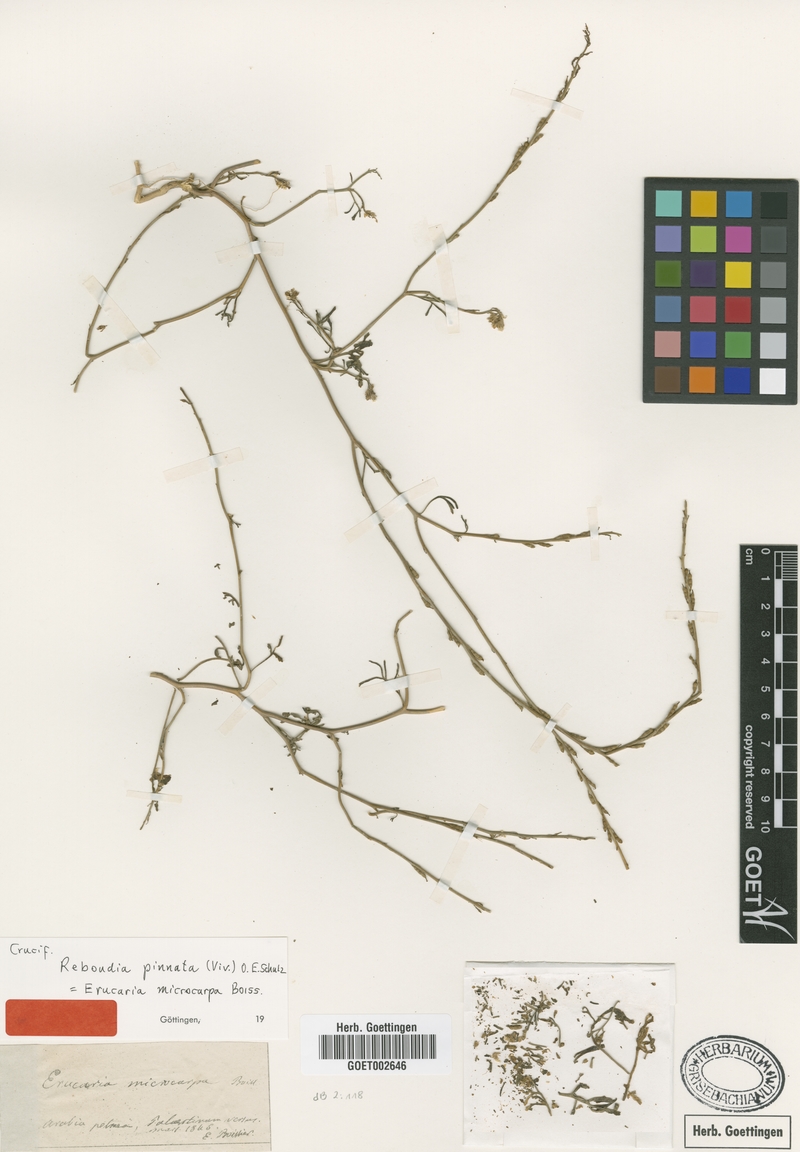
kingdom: Plantae
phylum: Tracheophyta
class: Magnoliopsida
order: Brassicales
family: Brassicaceae
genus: Erucaria
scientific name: Erucaria pinnata
